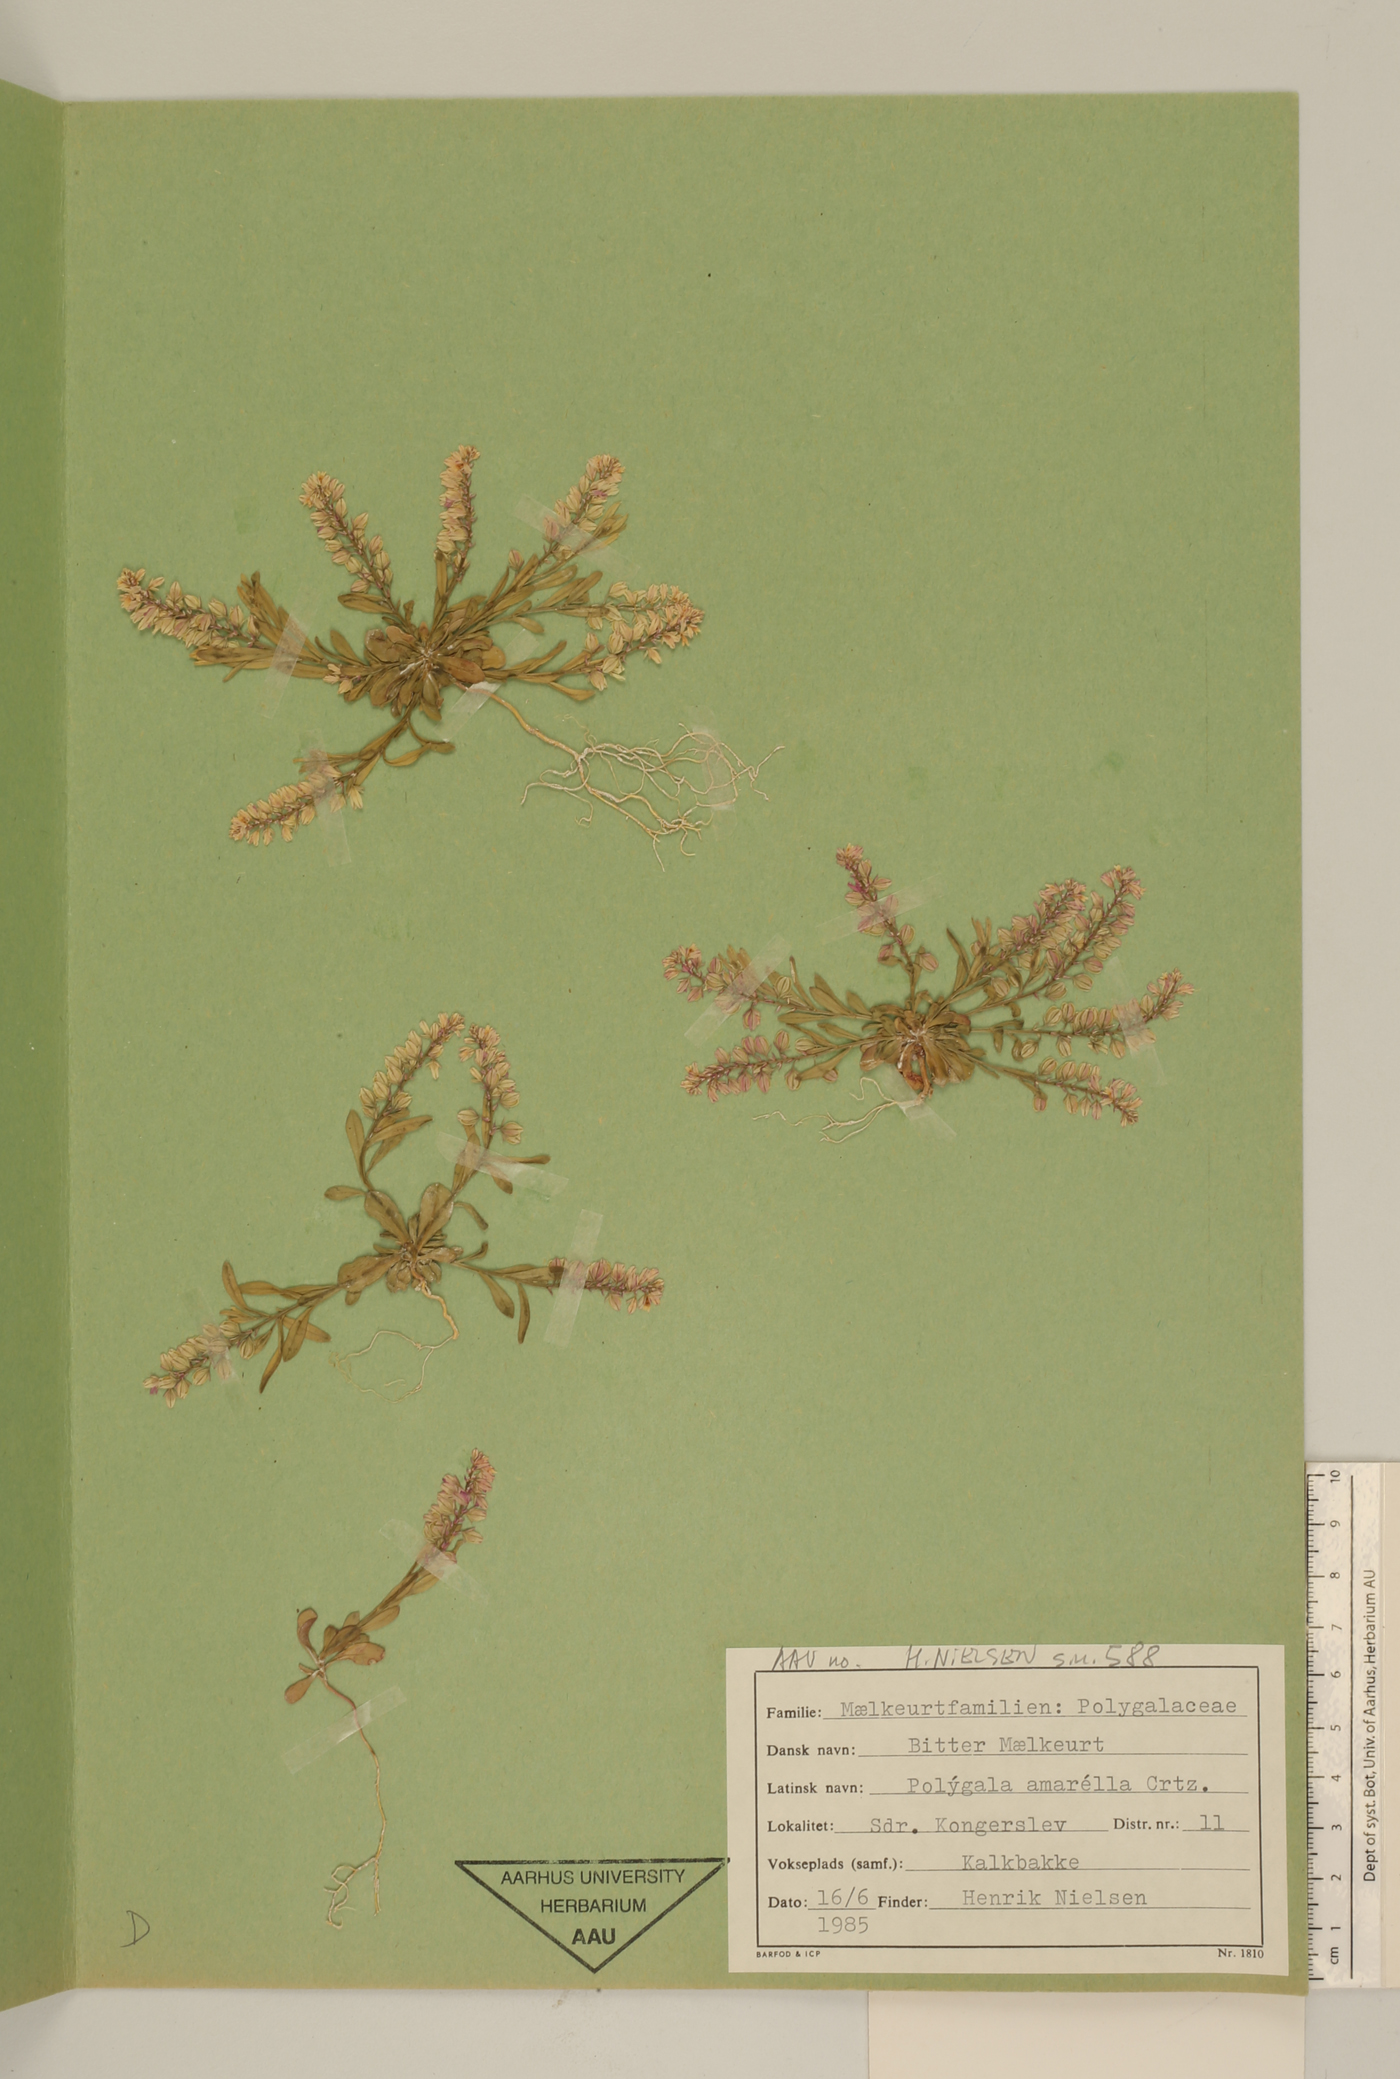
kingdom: Plantae
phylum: Tracheophyta
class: Magnoliopsida
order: Fabales
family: Polygalaceae
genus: Polygala
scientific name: Polygala amarella
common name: Dwarf milkwort
